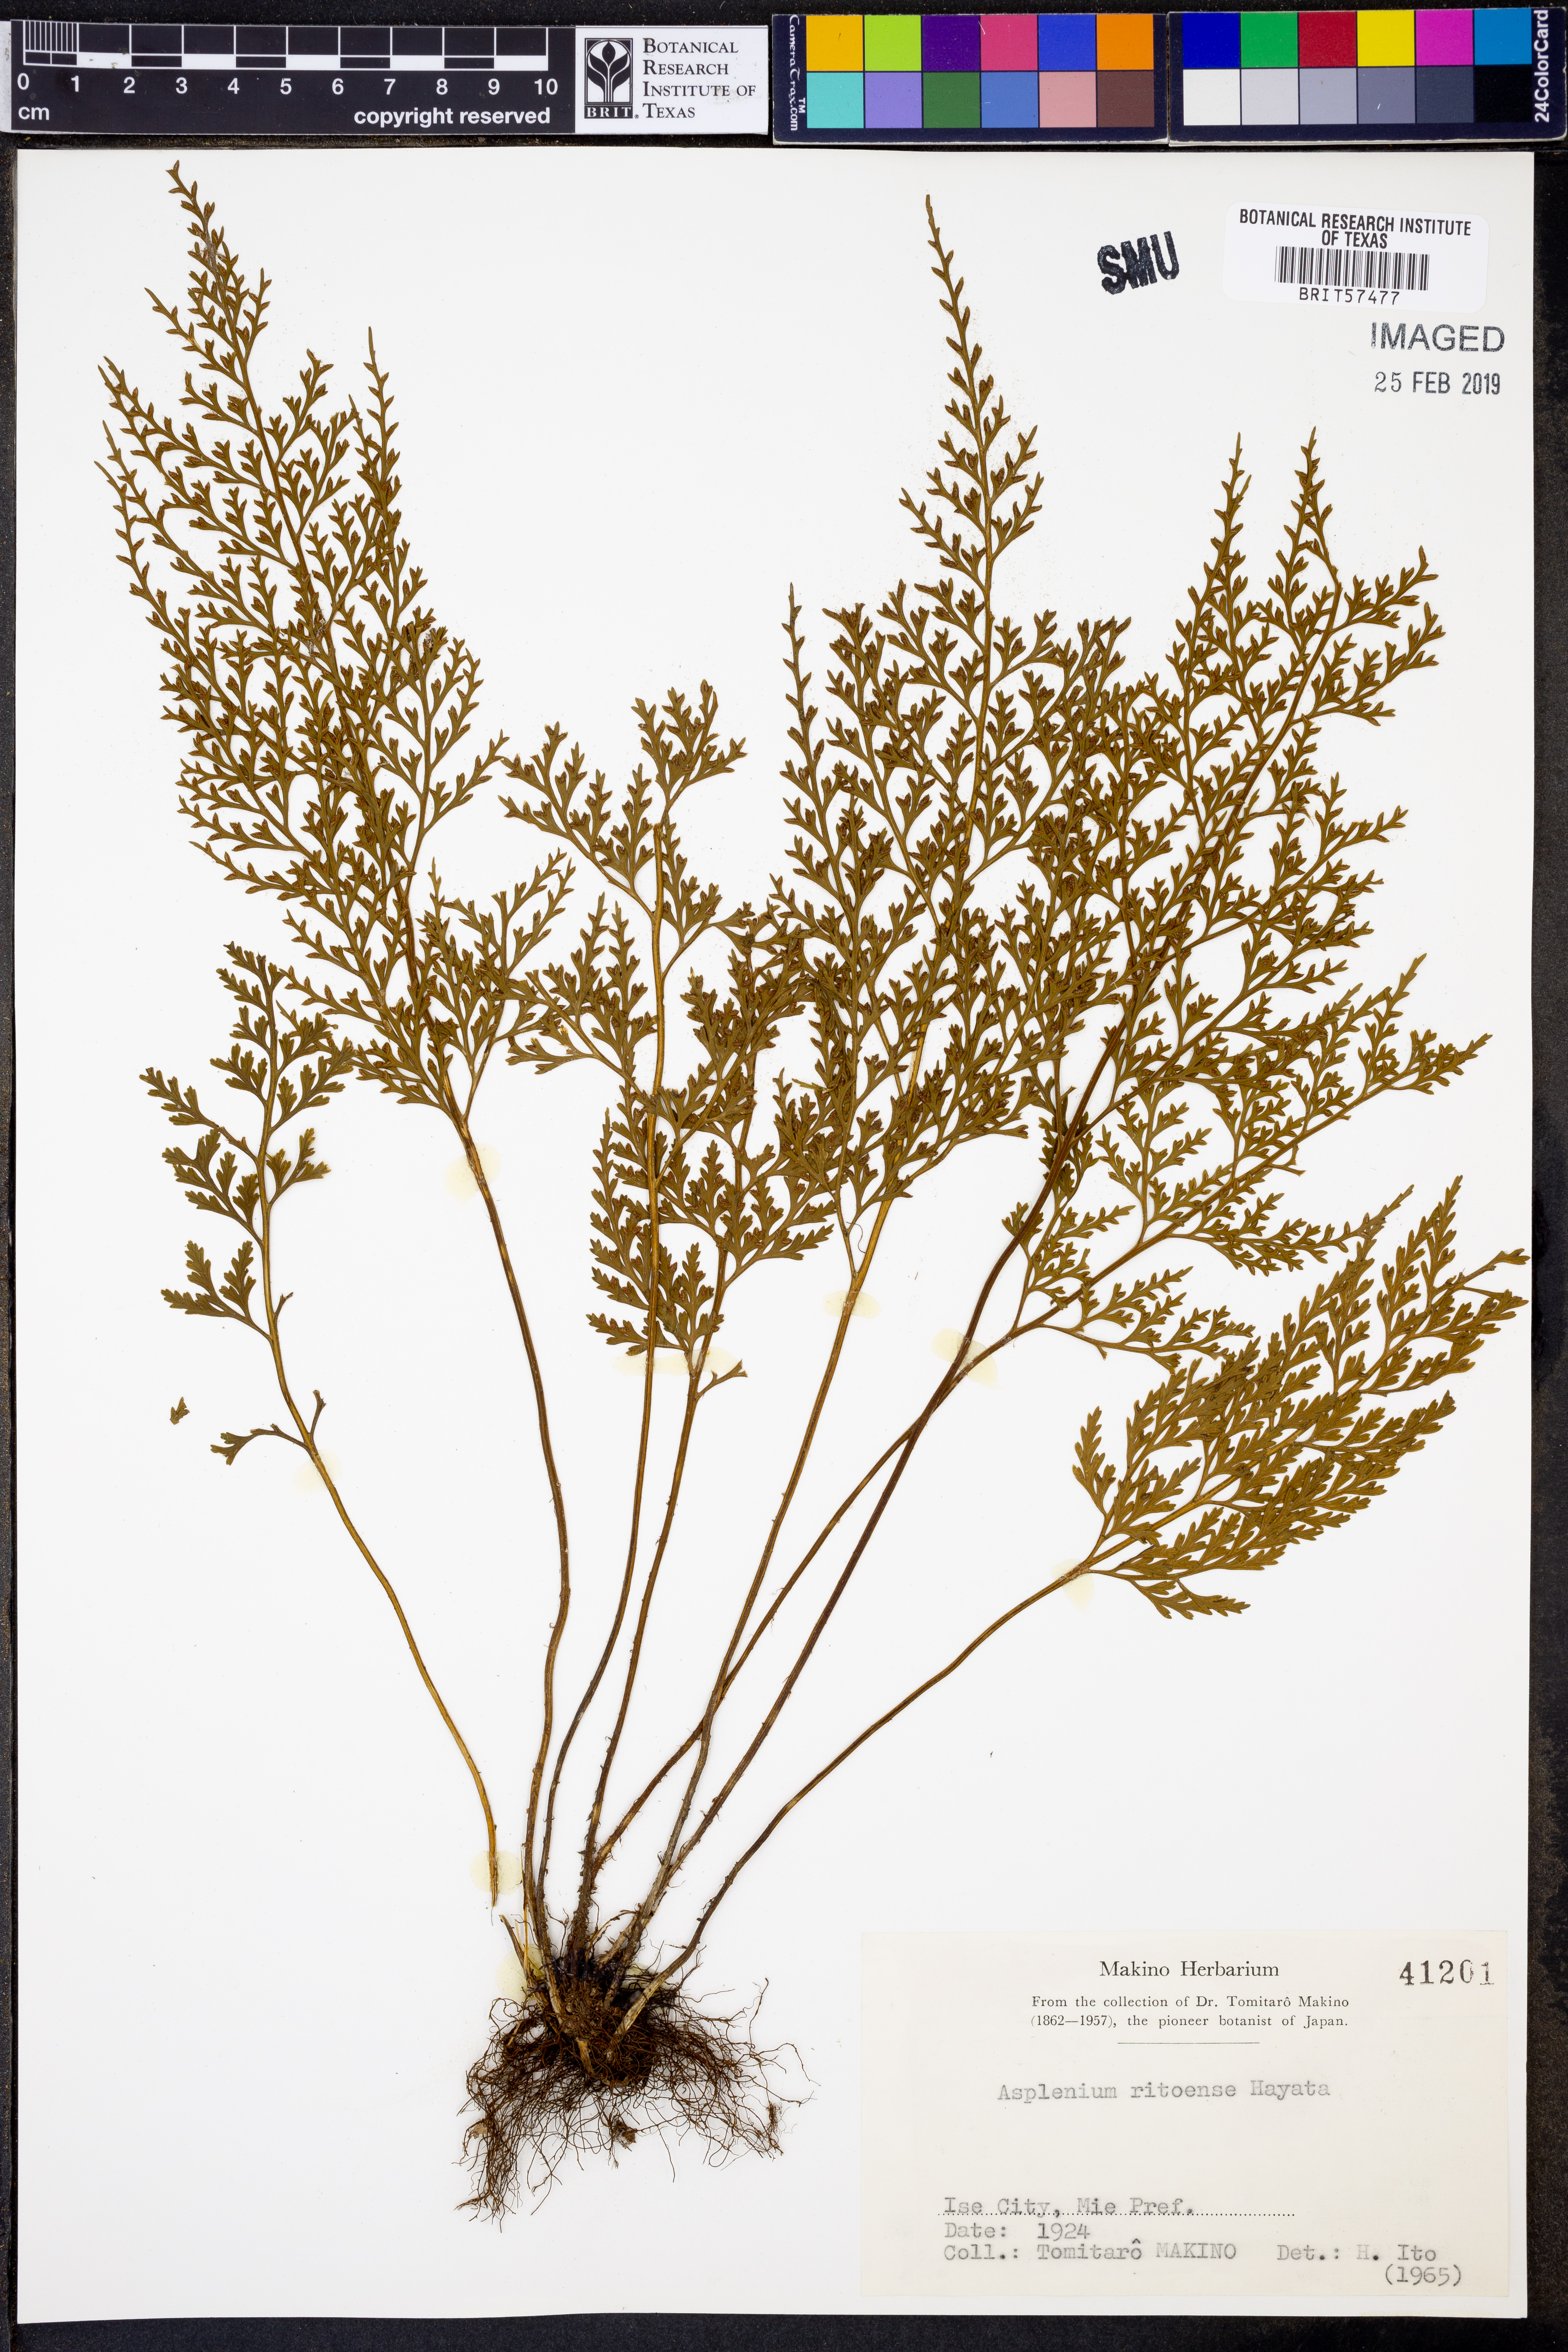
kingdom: Plantae
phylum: Tracheophyta
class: Polypodiopsida
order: Polypodiales
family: Aspleniaceae
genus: Asplenium
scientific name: Asplenium ritoense
